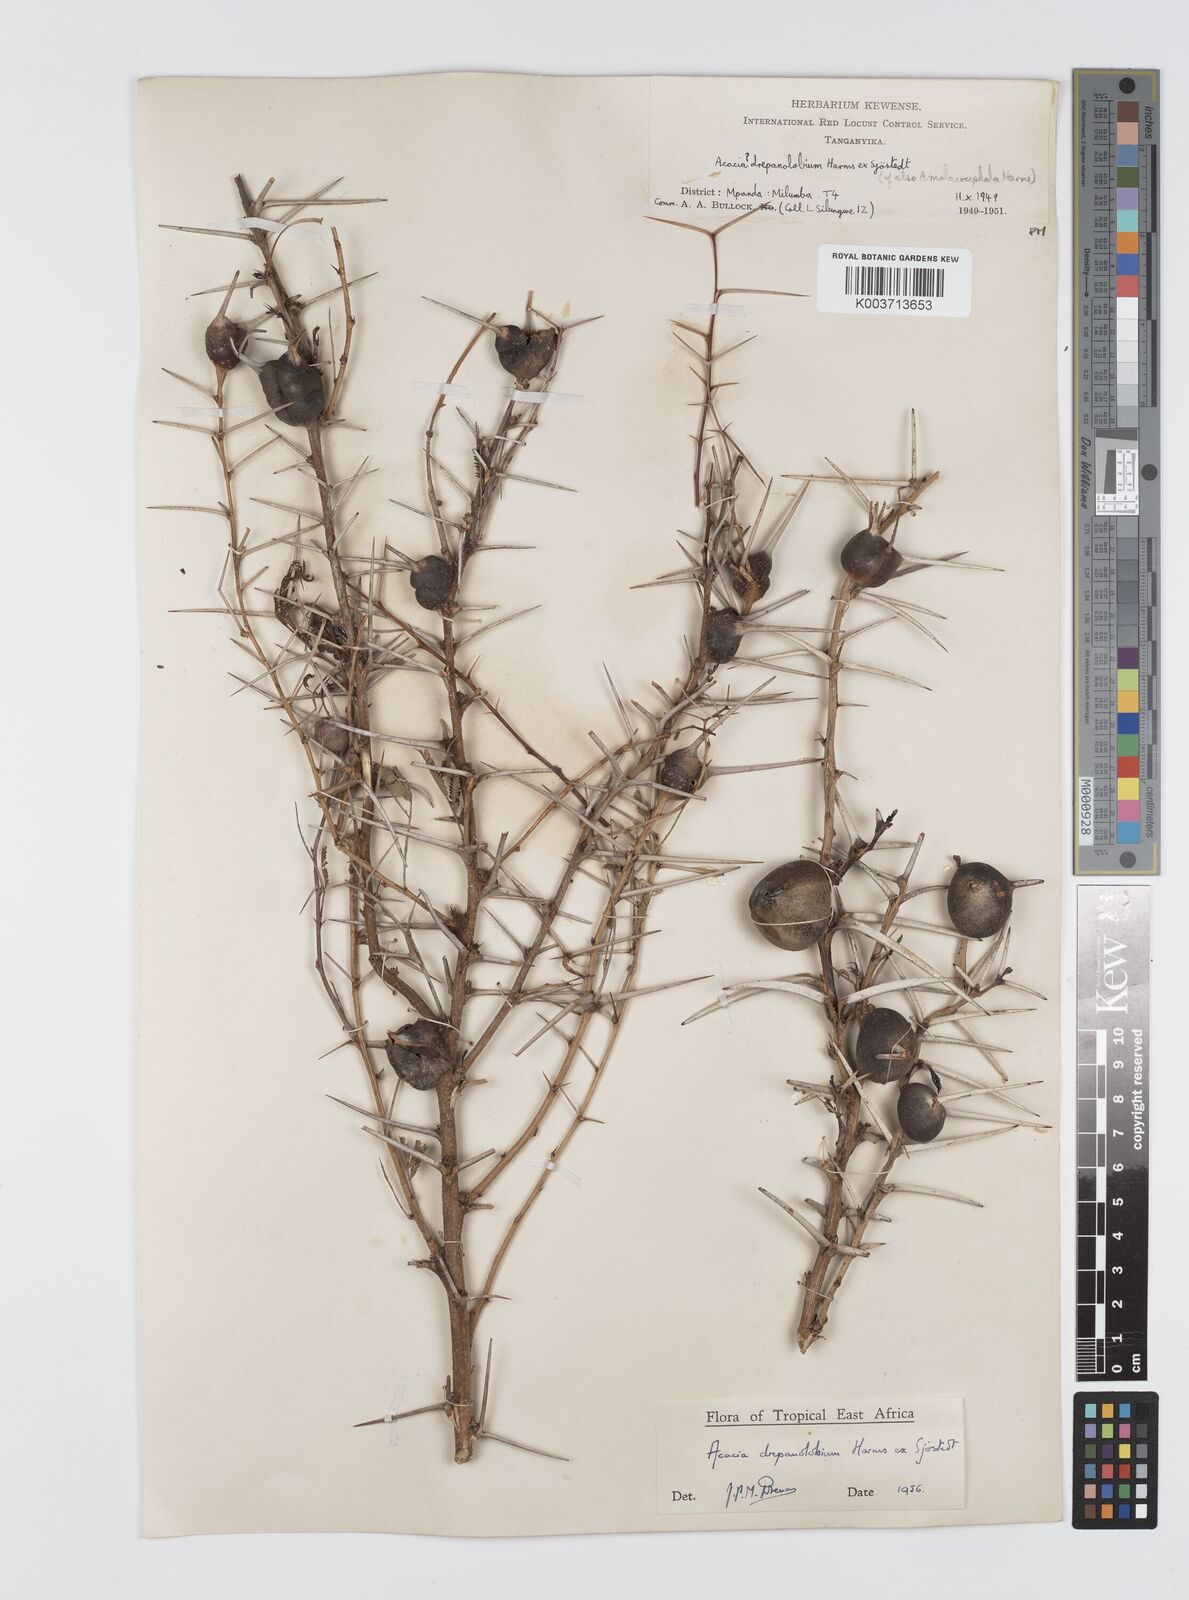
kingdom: Plantae
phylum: Tracheophyta
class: Magnoliopsida
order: Fabales
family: Fabaceae
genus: Vachellia
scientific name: Vachellia drepanolobium
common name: Whistling thorn
